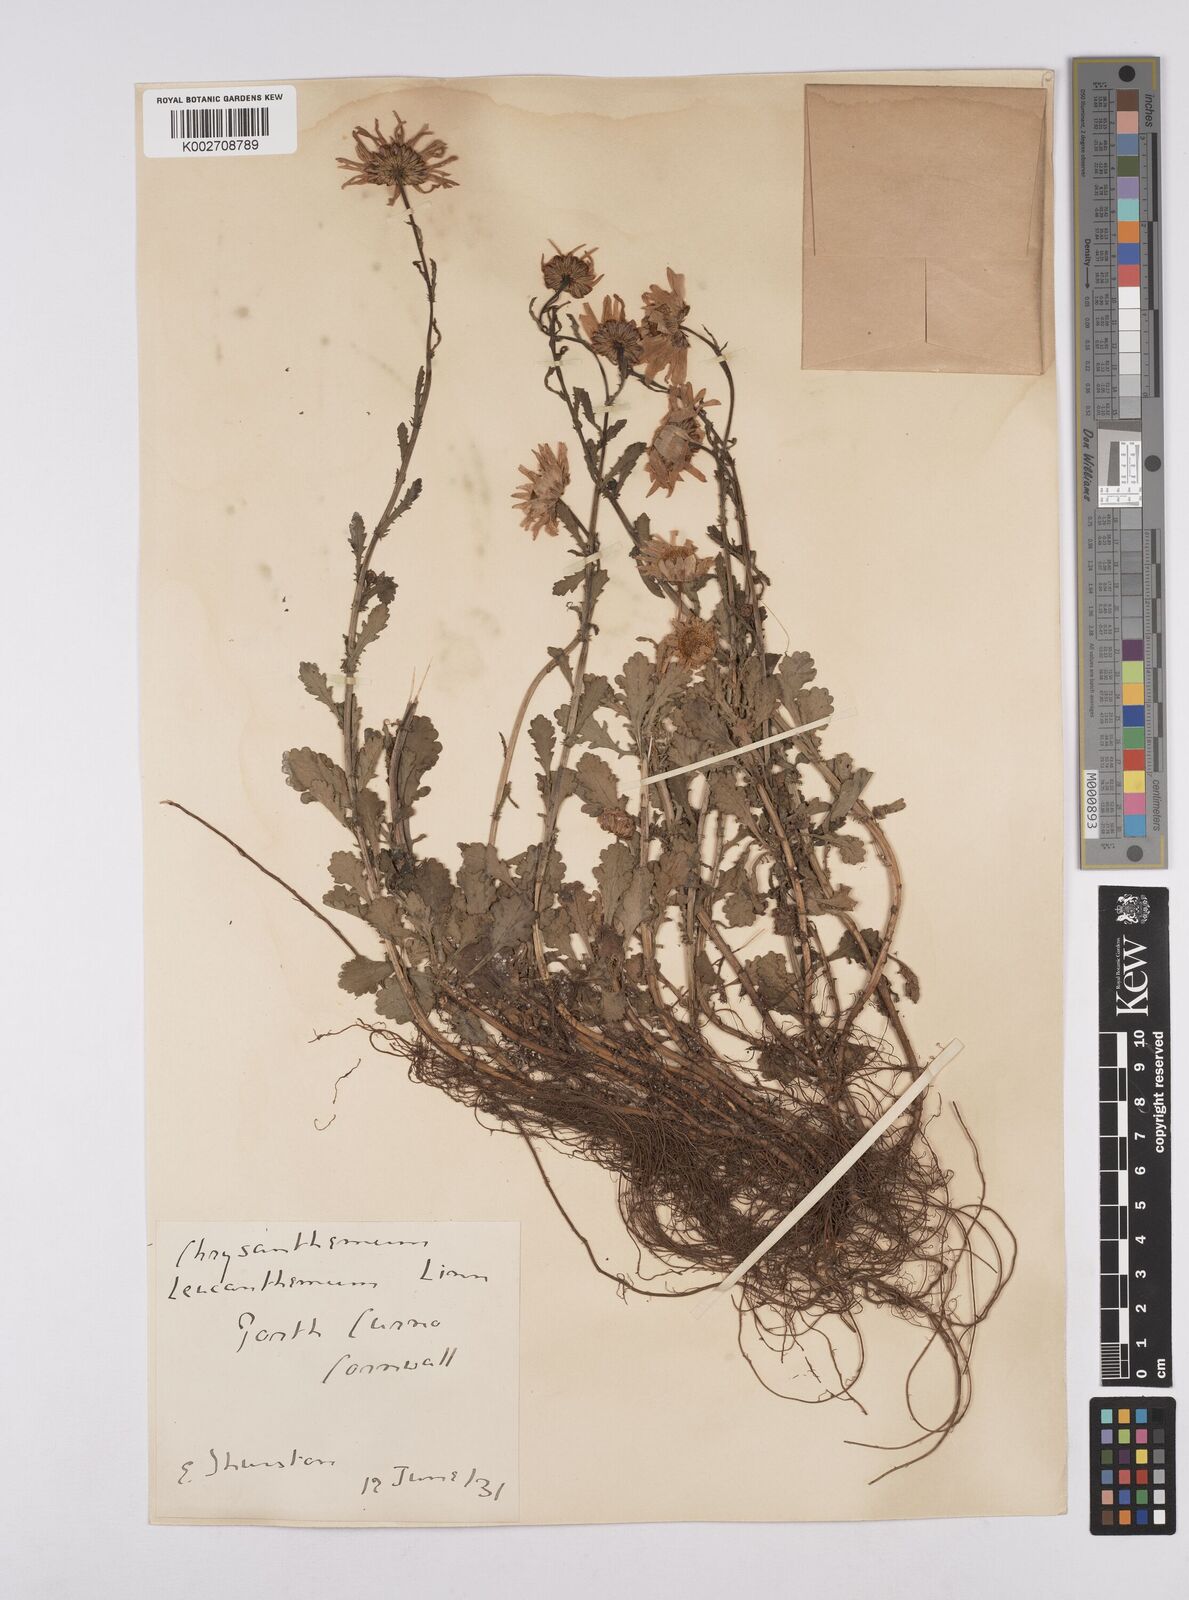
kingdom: Plantae
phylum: Tracheophyta
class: Magnoliopsida
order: Asterales
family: Asteraceae
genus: Leucanthemum
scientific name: Leucanthemum vulgare
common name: Oxeye daisy
